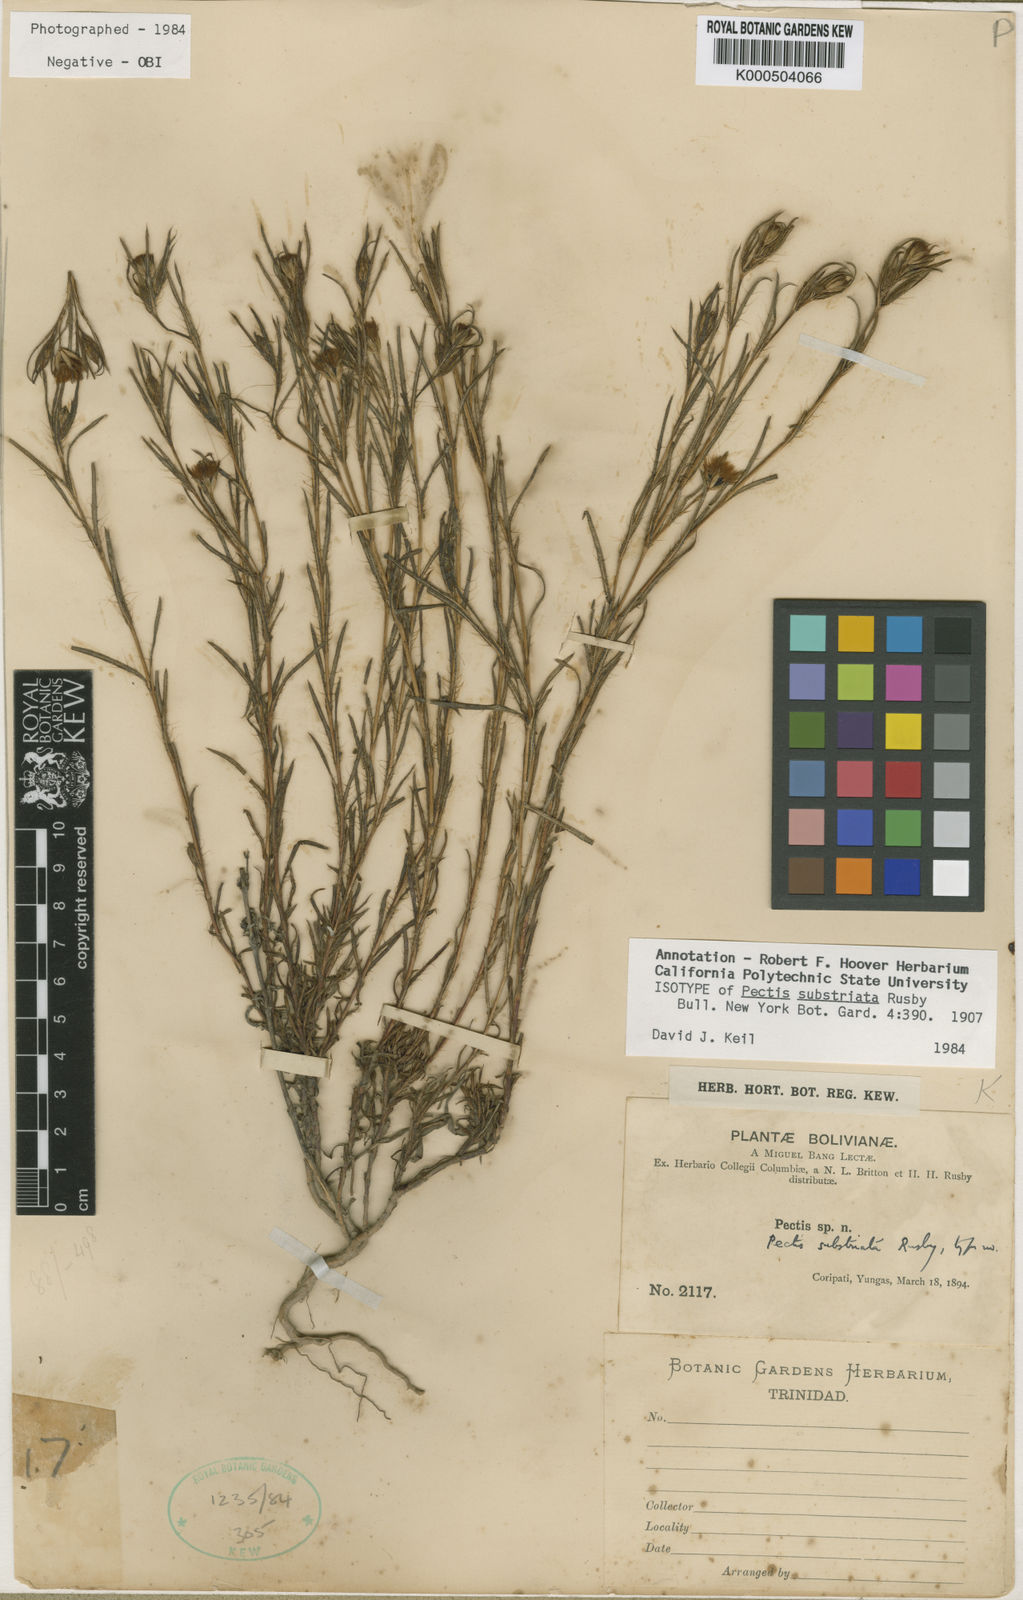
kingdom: Plantae
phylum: Tracheophyta
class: Magnoliopsida
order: Asterales
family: Asteraceae
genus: Pectis
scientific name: Pectis substriata
